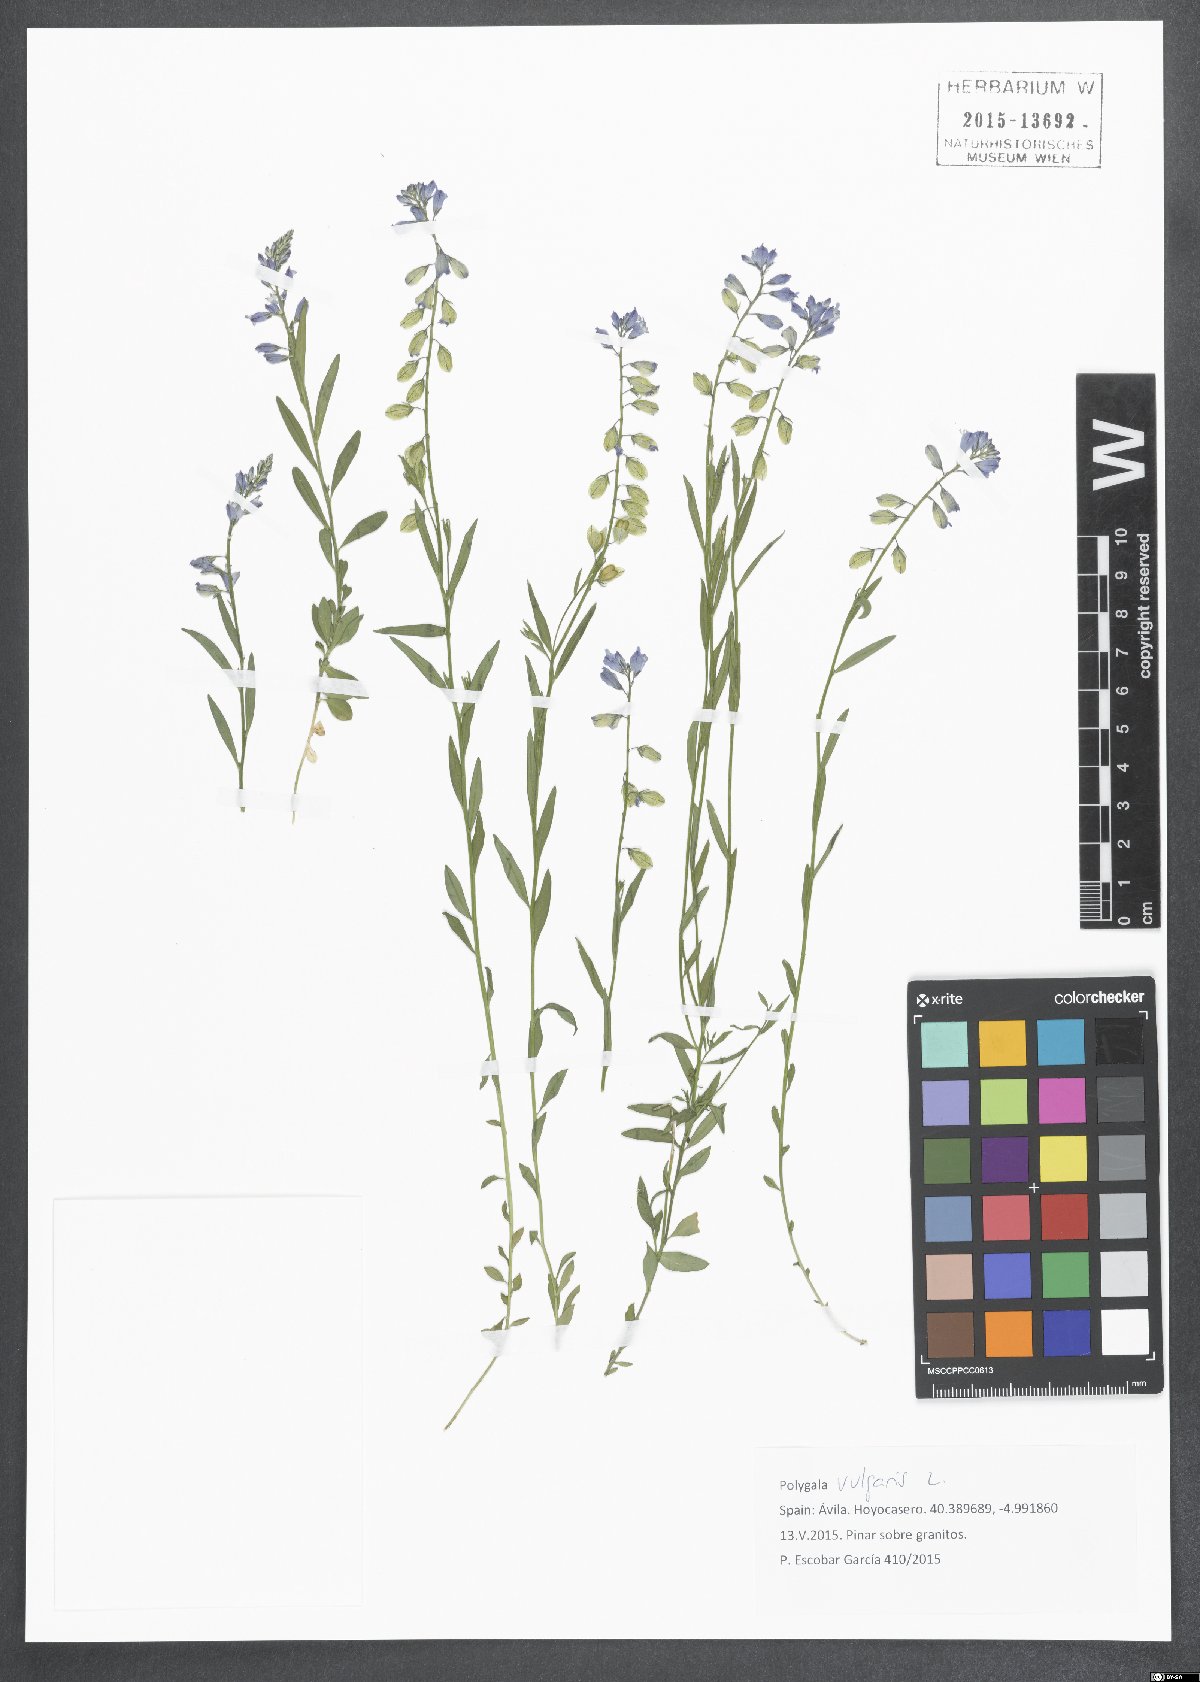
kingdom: Plantae
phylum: Tracheophyta
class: Magnoliopsida
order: Fabales
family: Polygalaceae
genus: Polygala
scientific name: Polygala vulgaris
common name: Common milkwort
